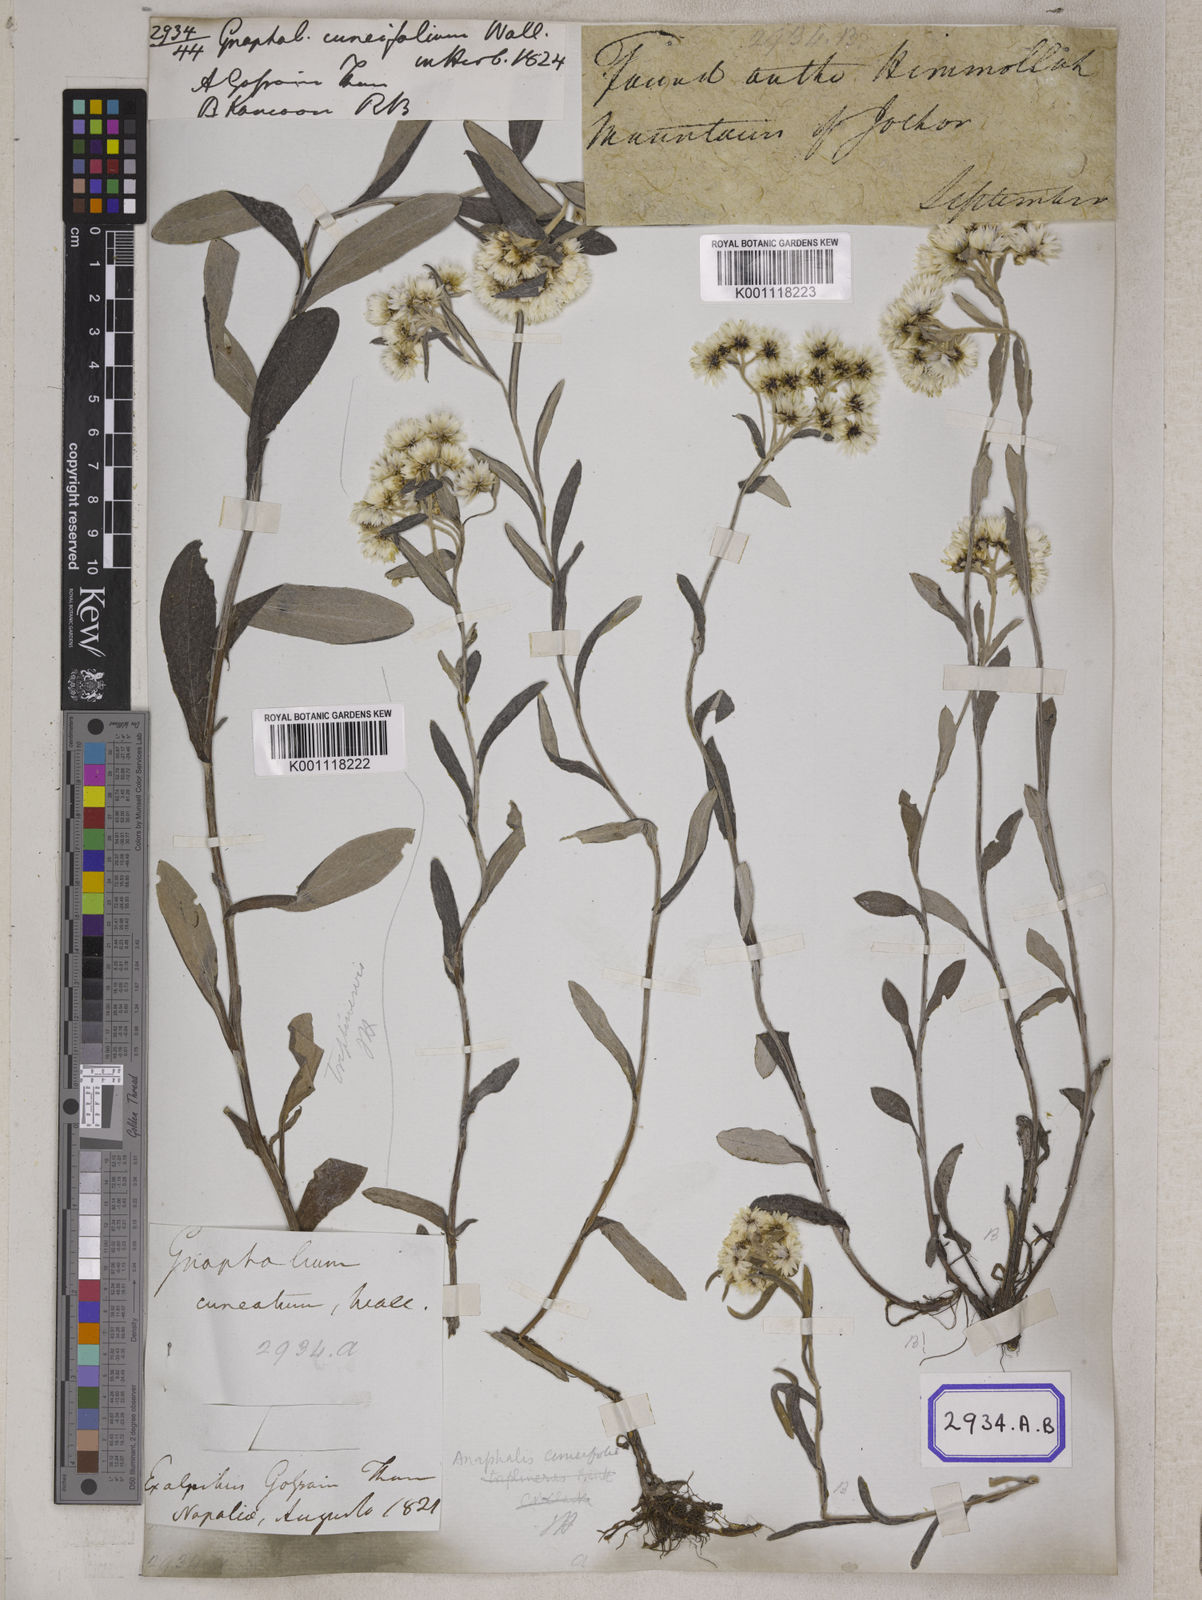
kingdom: Plantae
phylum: Tracheophyta
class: Magnoliopsida
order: Asterales
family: Asteraceae
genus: Anaphalis
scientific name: Anaphalis nepalensis
